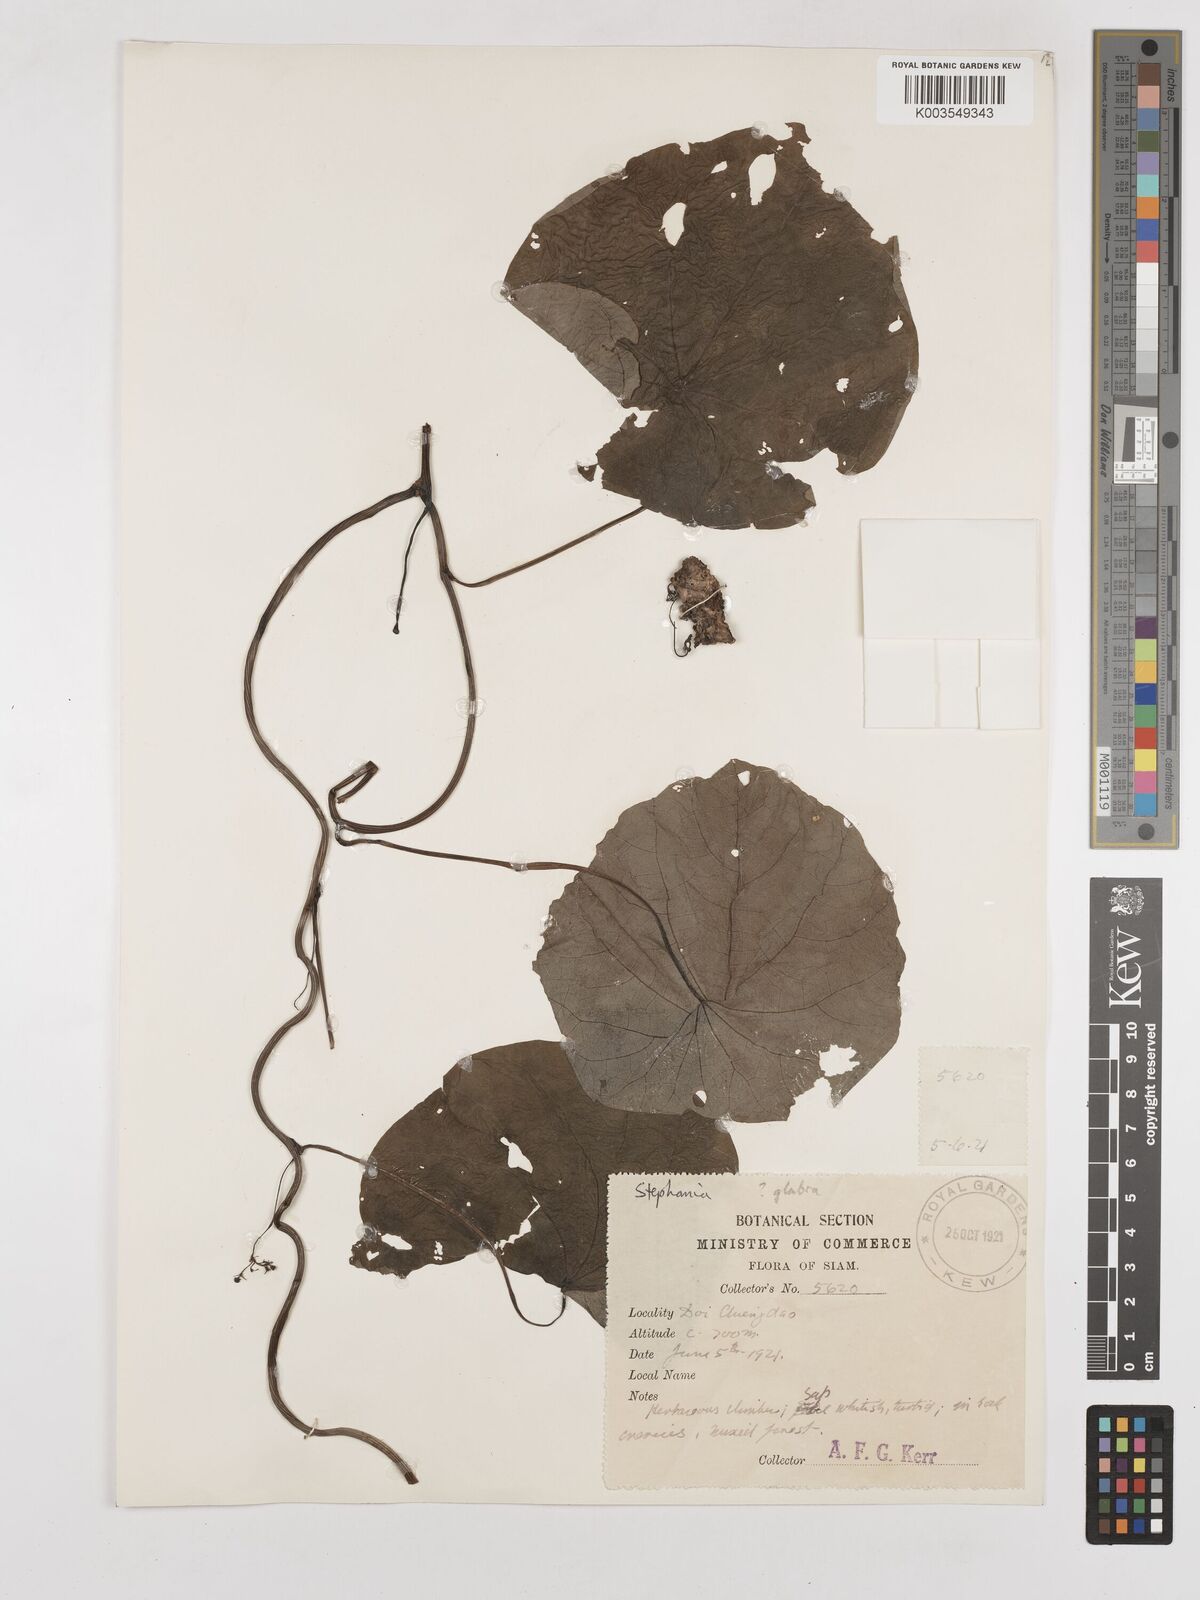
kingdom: Plantae
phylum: Tracheophyta
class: Magnoliopsida
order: Ranunculales
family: Menispermaceae
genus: Stephania
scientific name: Stephania rotunda
